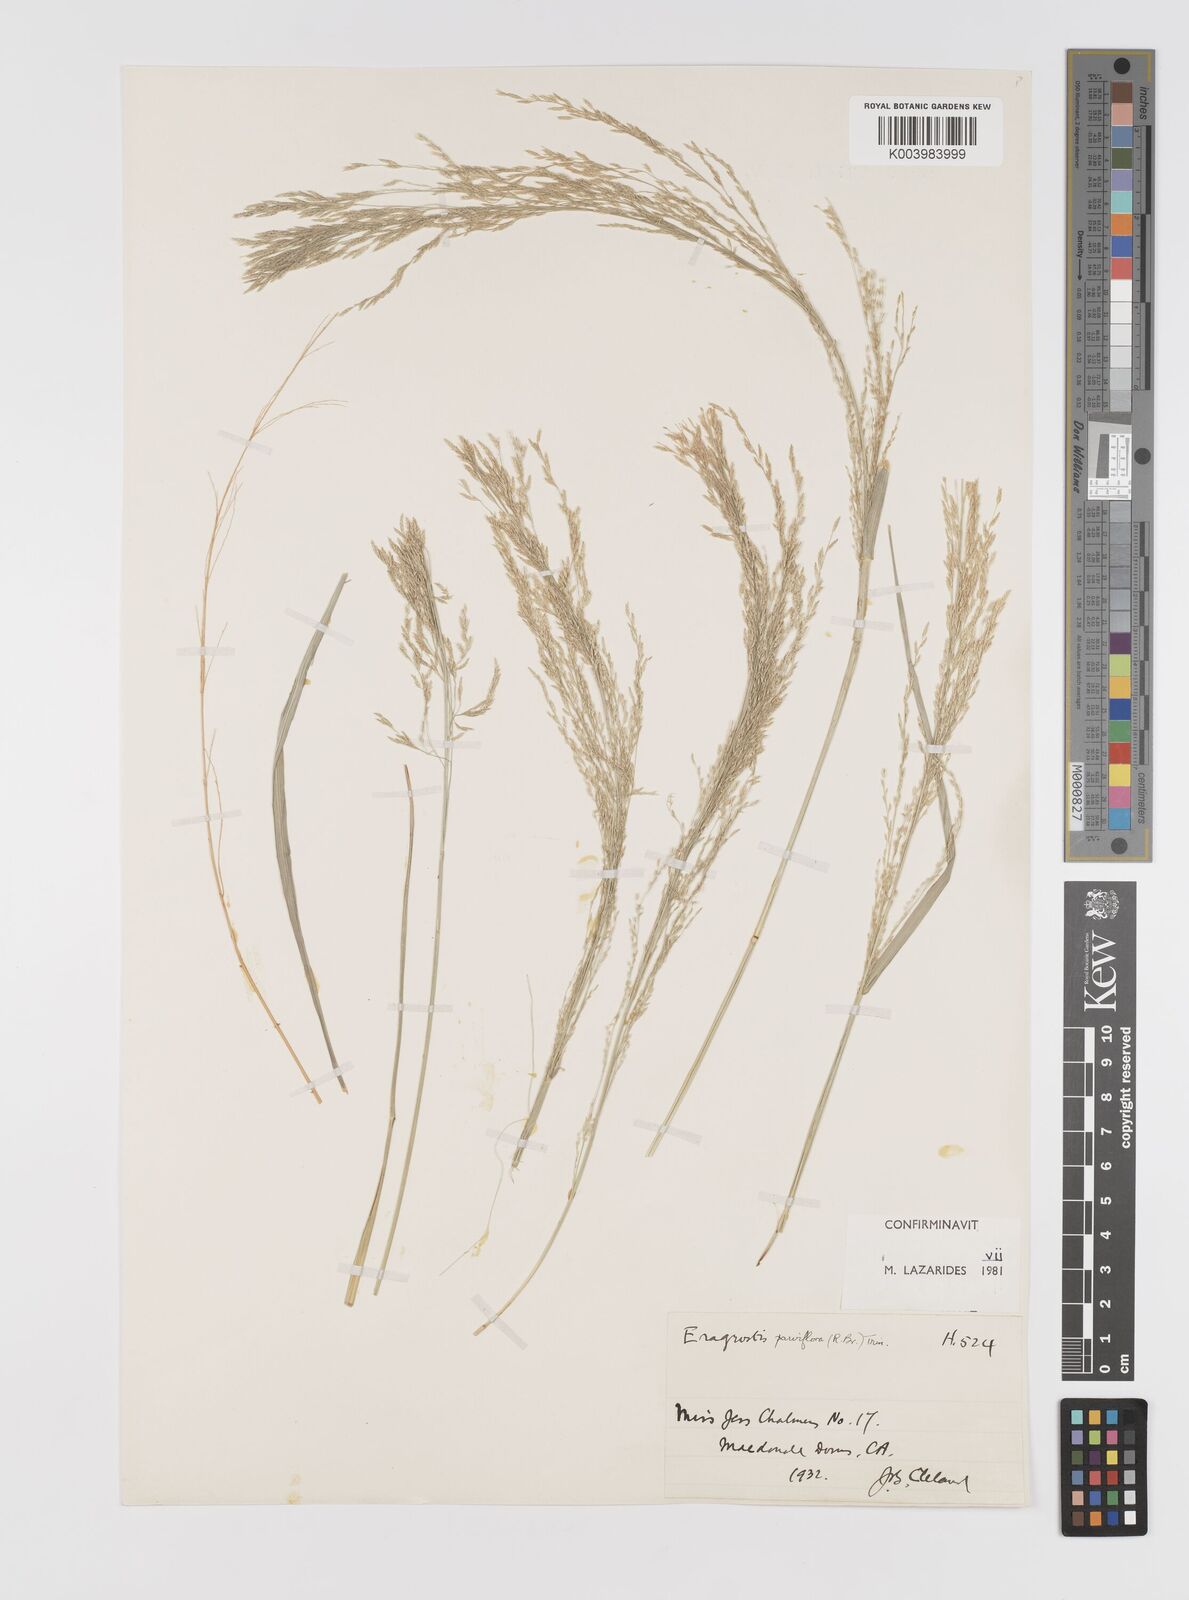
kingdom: Plantae
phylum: Tracheophyta
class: Liliopsida
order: Poales
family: Poaceae
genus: Eragrostis
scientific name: Eragrostis parviflora
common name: Weeping love-grass
